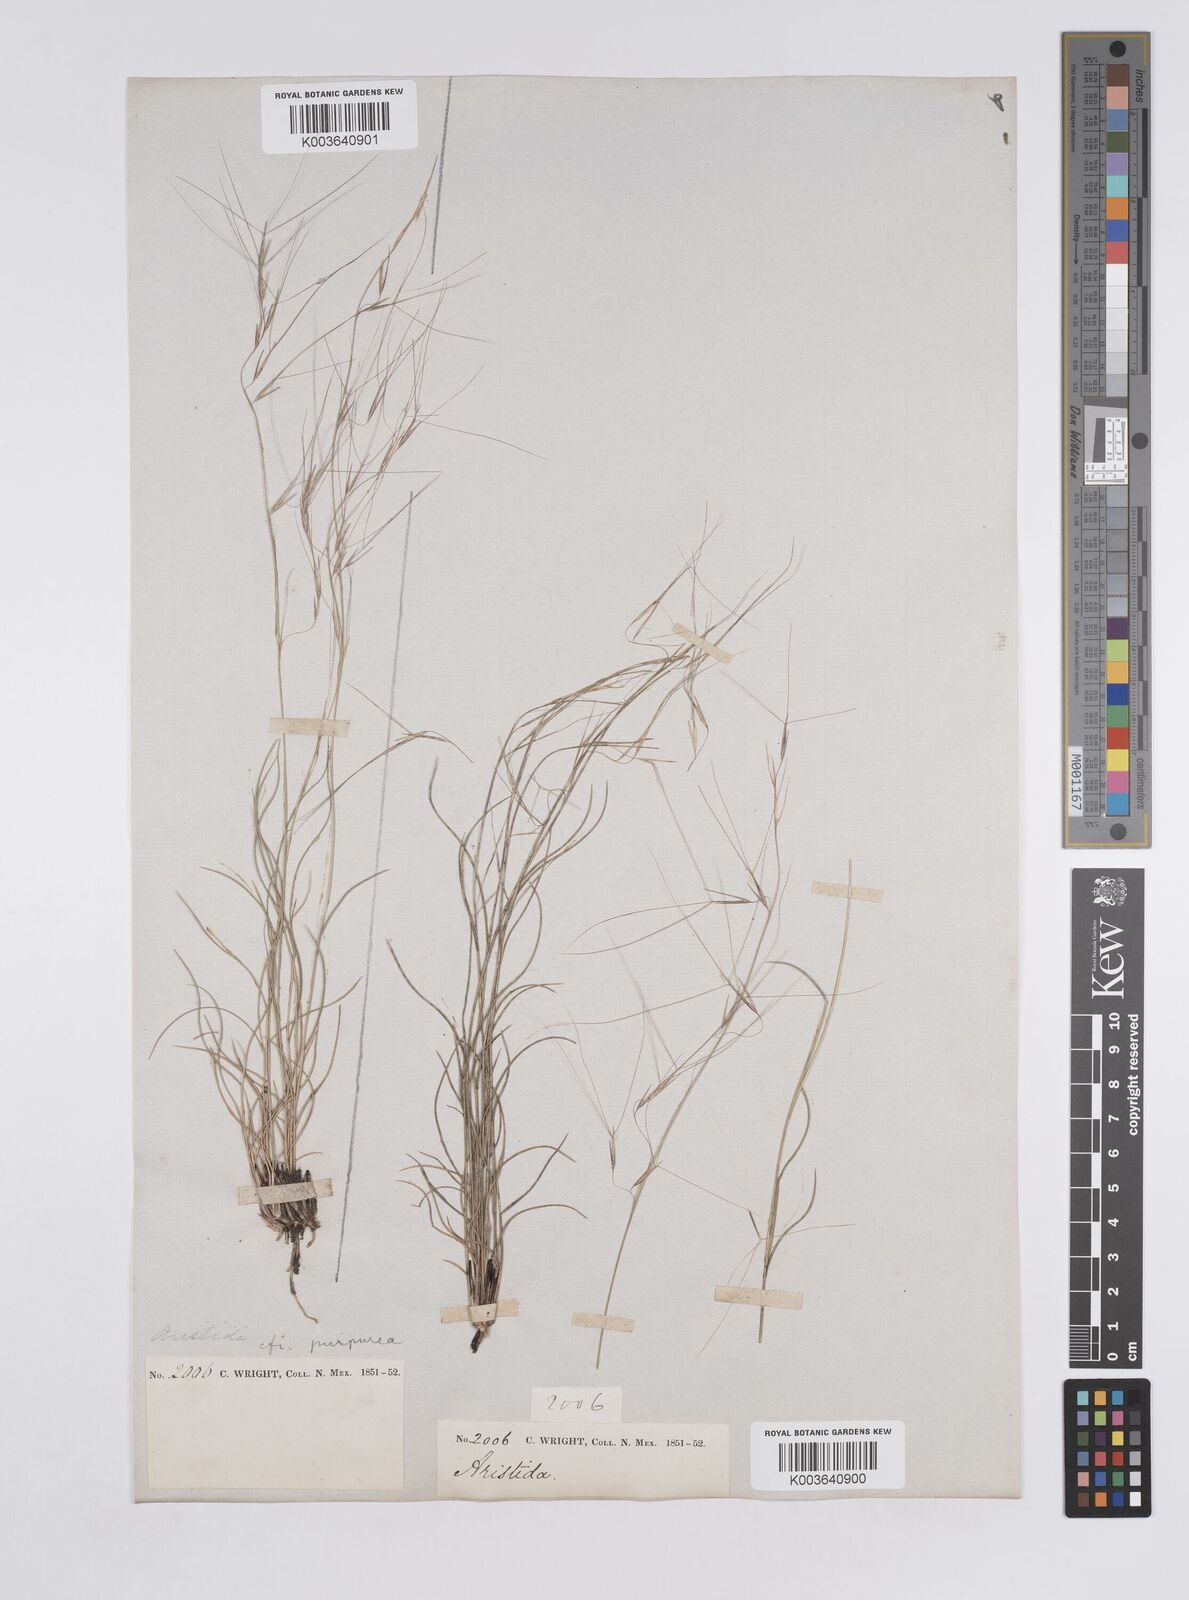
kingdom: Plantae
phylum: Tracheophyta
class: Liliopsida
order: Poales
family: Poaceae
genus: Aristida
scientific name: Aristida purpurea
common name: Purple threeawn
